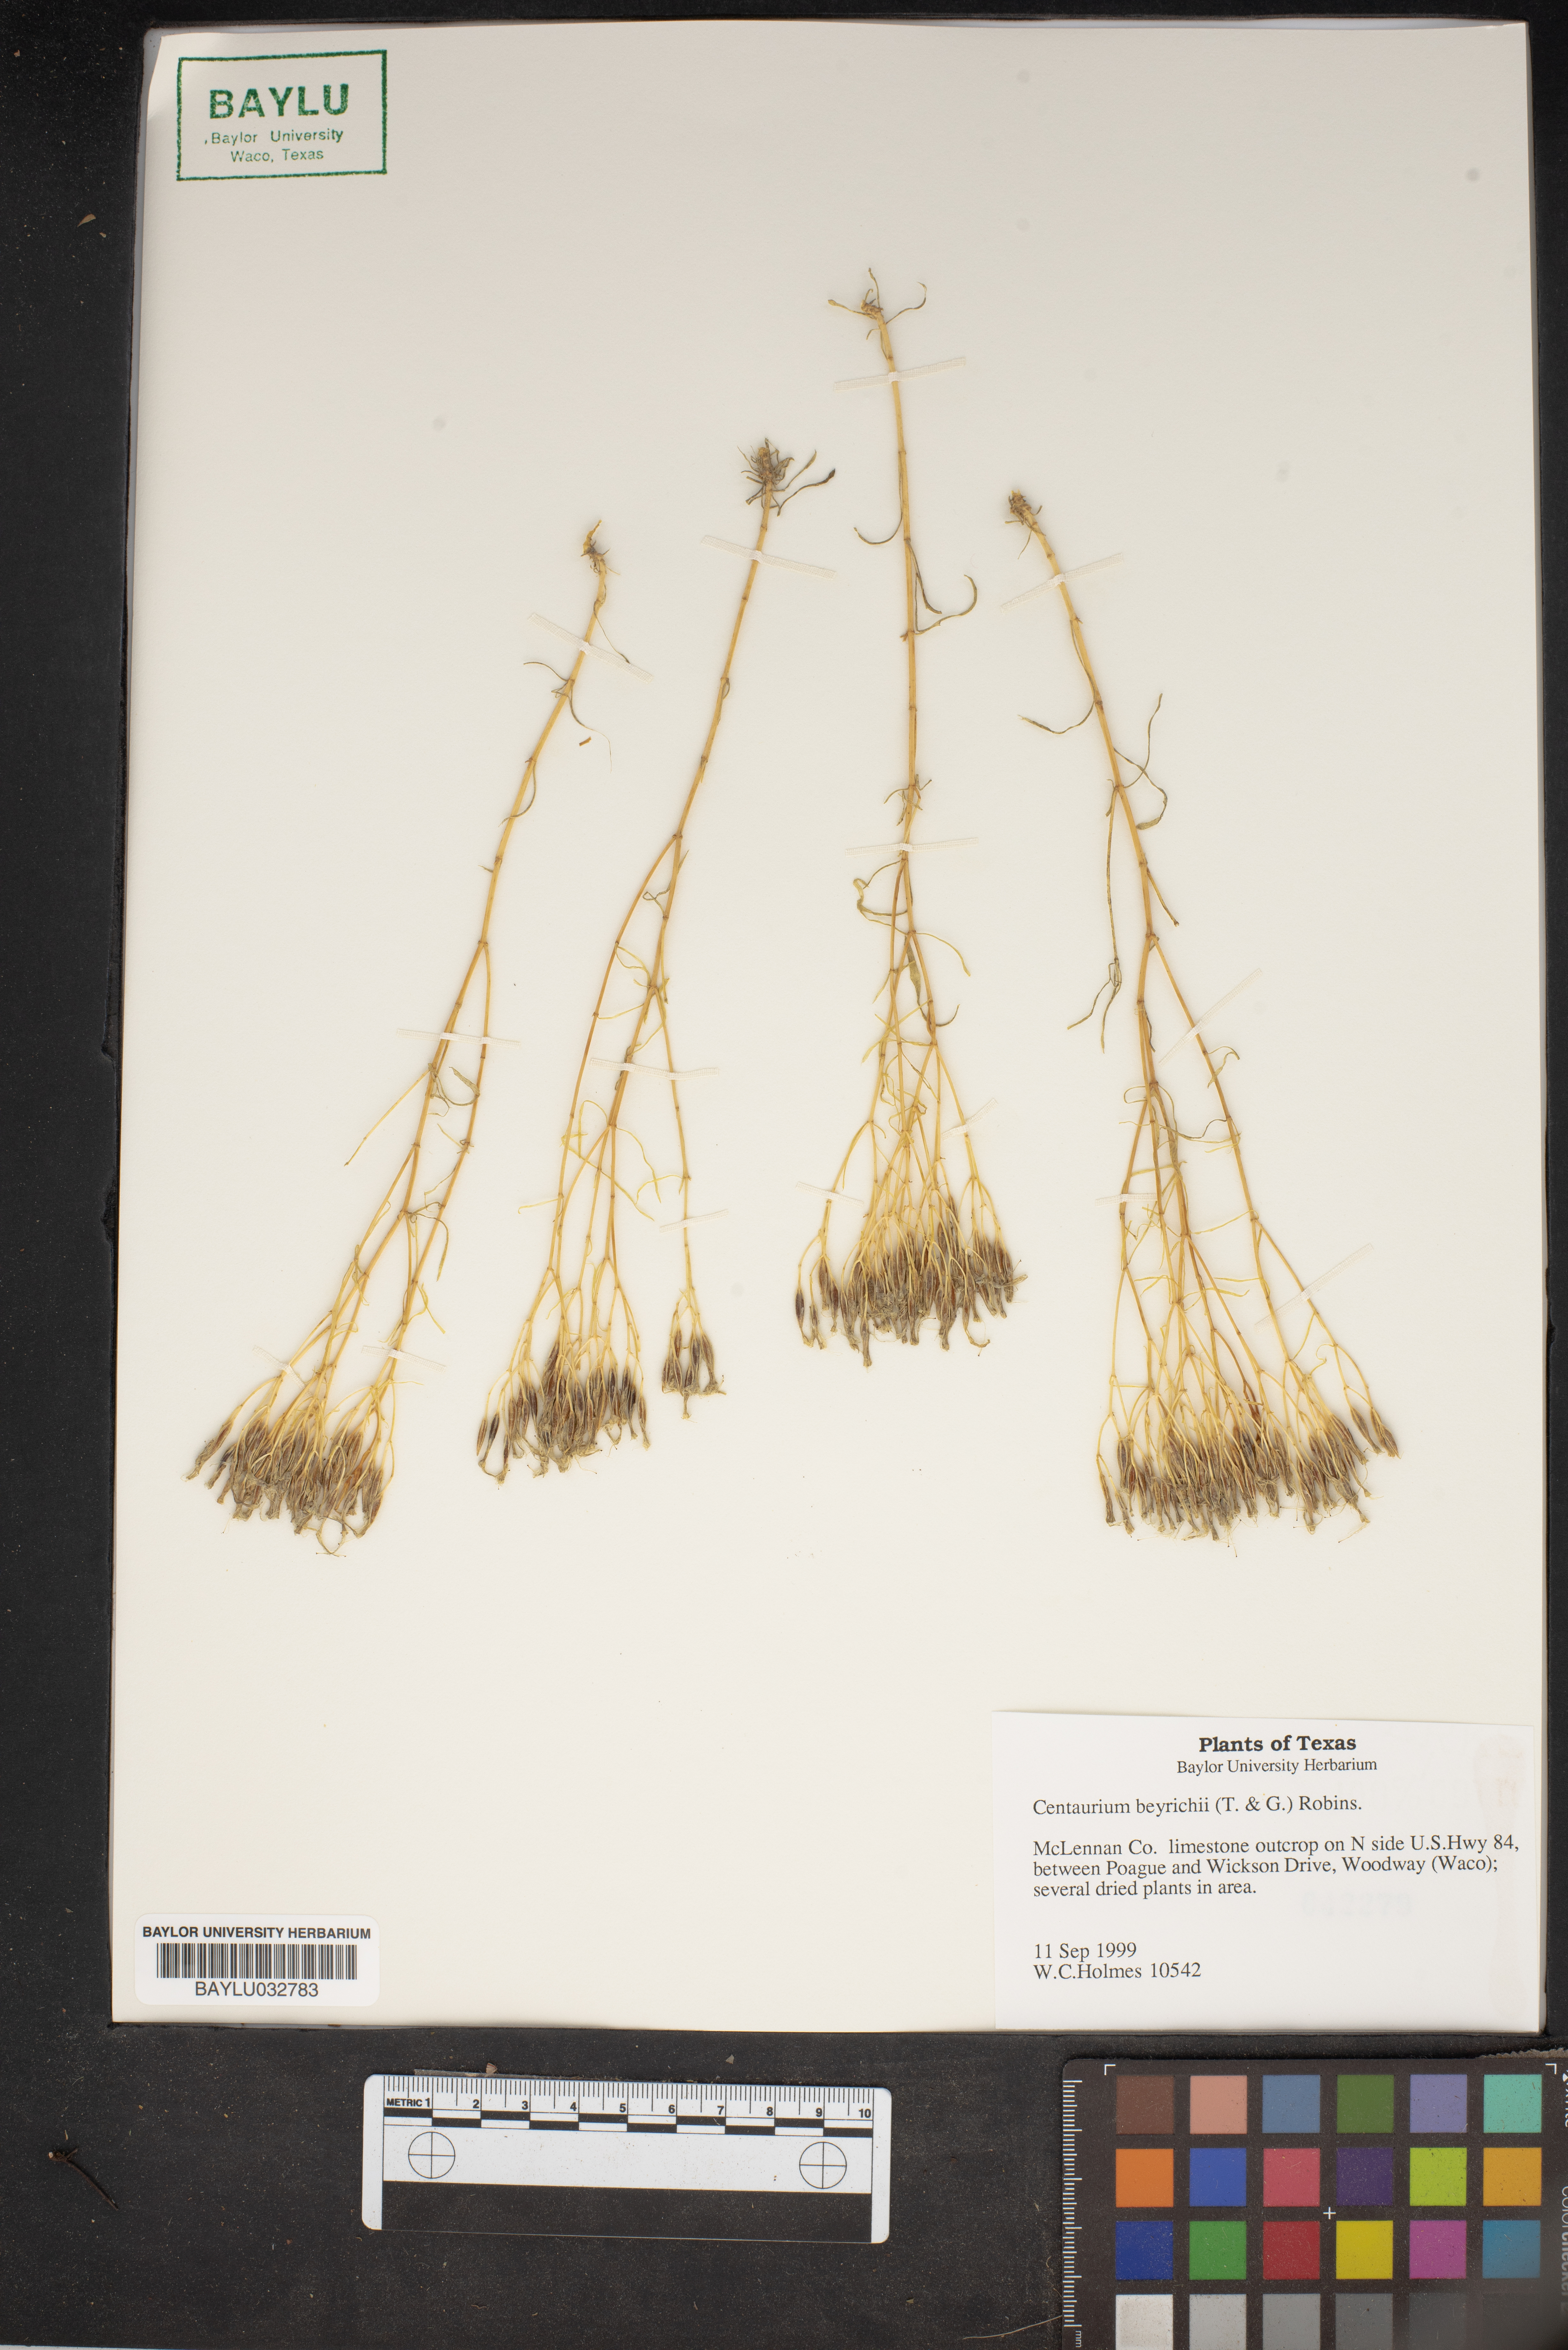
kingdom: Plantae
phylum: Tracheophyta
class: Magnoliopsida
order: Gentianales
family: Gentianaceae
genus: Zeltnera
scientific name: Zeltnera beyrichii
